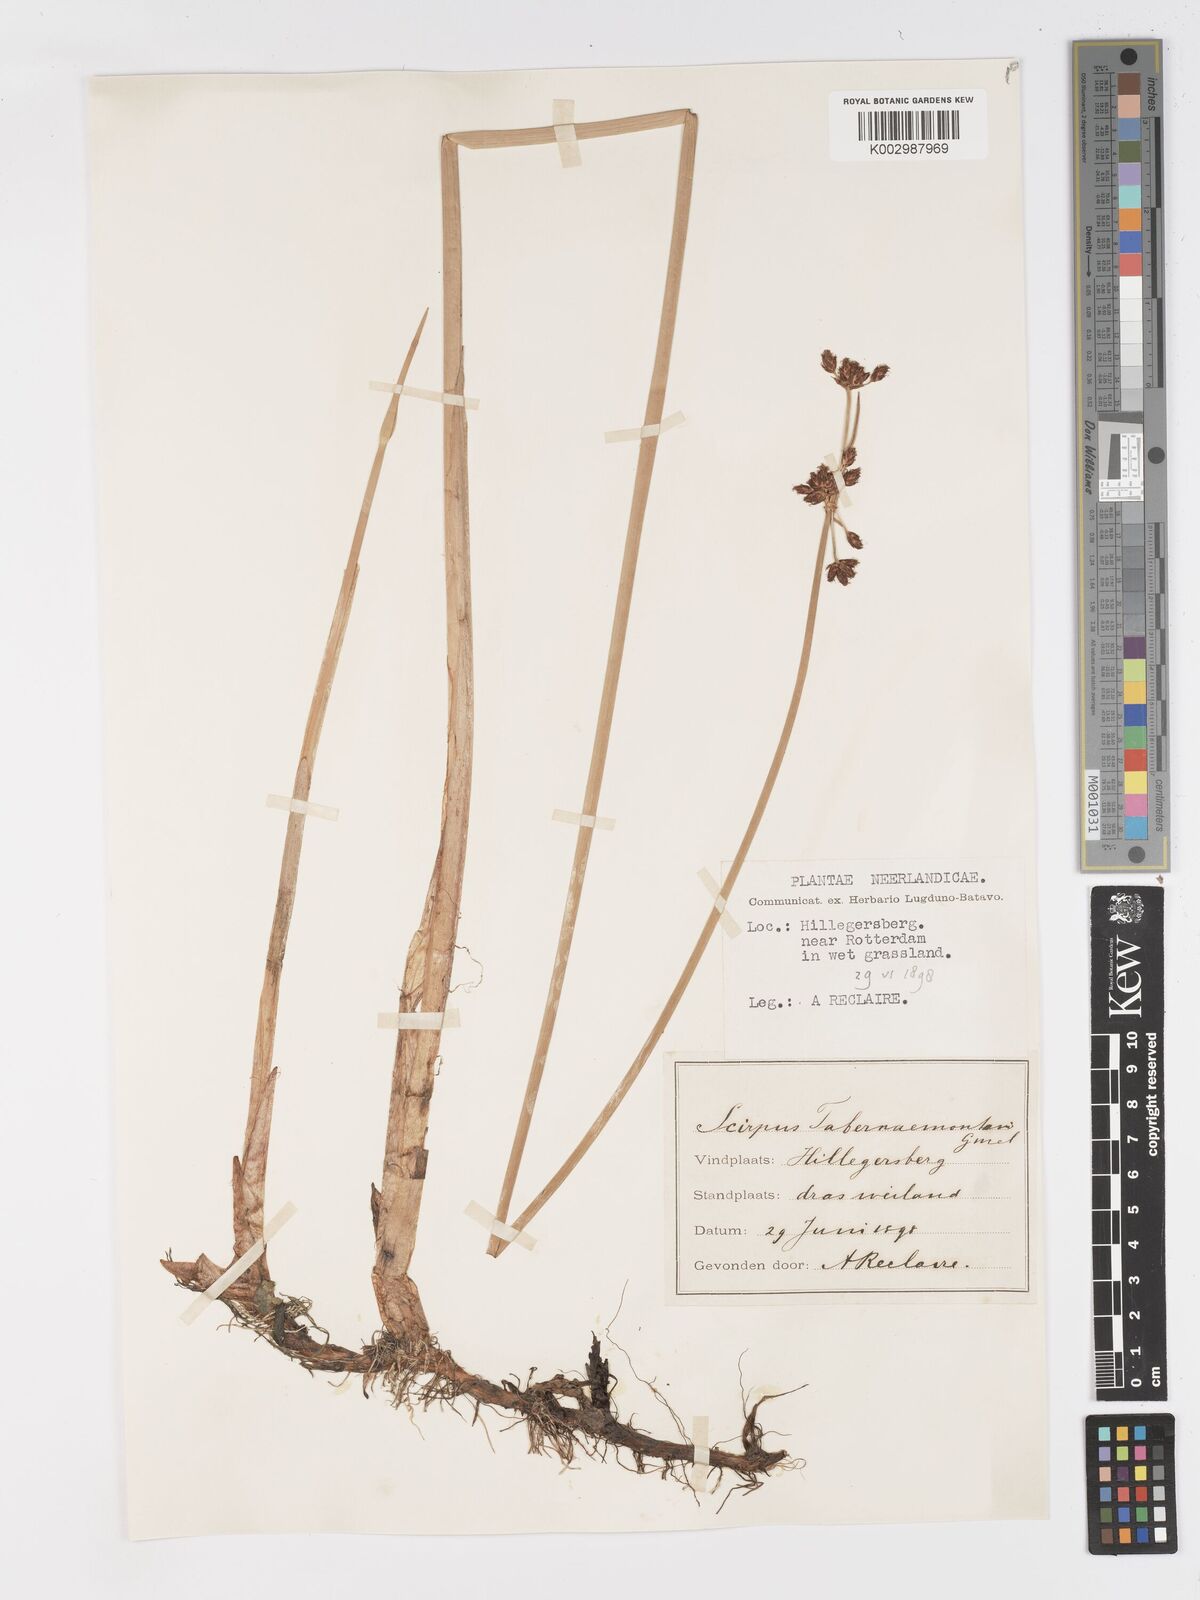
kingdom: Plantae
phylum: Tracheophyta
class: Liliopsida
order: Poales
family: Cyperaceae
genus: Schoenoplectus
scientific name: Schoenoplectus tabernaemontani
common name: Grey club-rush
